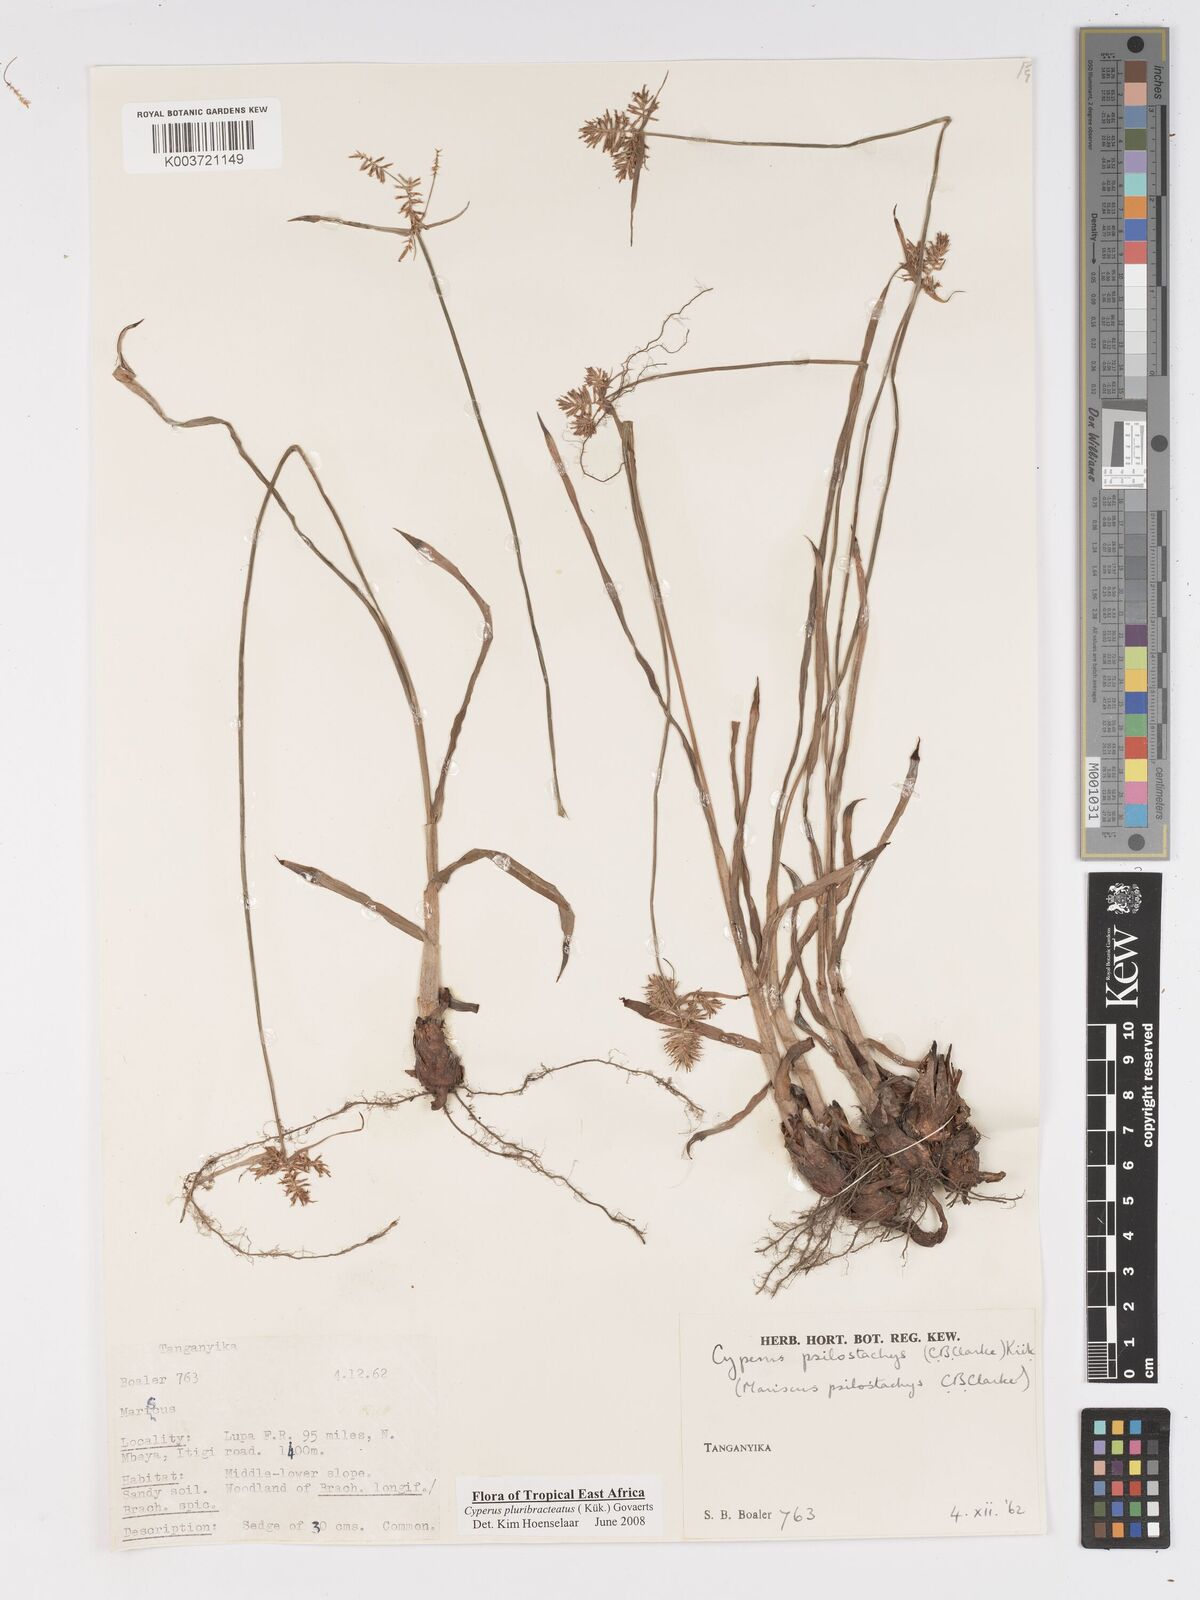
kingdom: Plantae
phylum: Tracheophyta
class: Liliopsida
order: Poales
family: Cyperaceae
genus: Cyperus
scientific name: Cyperus trigonellus
